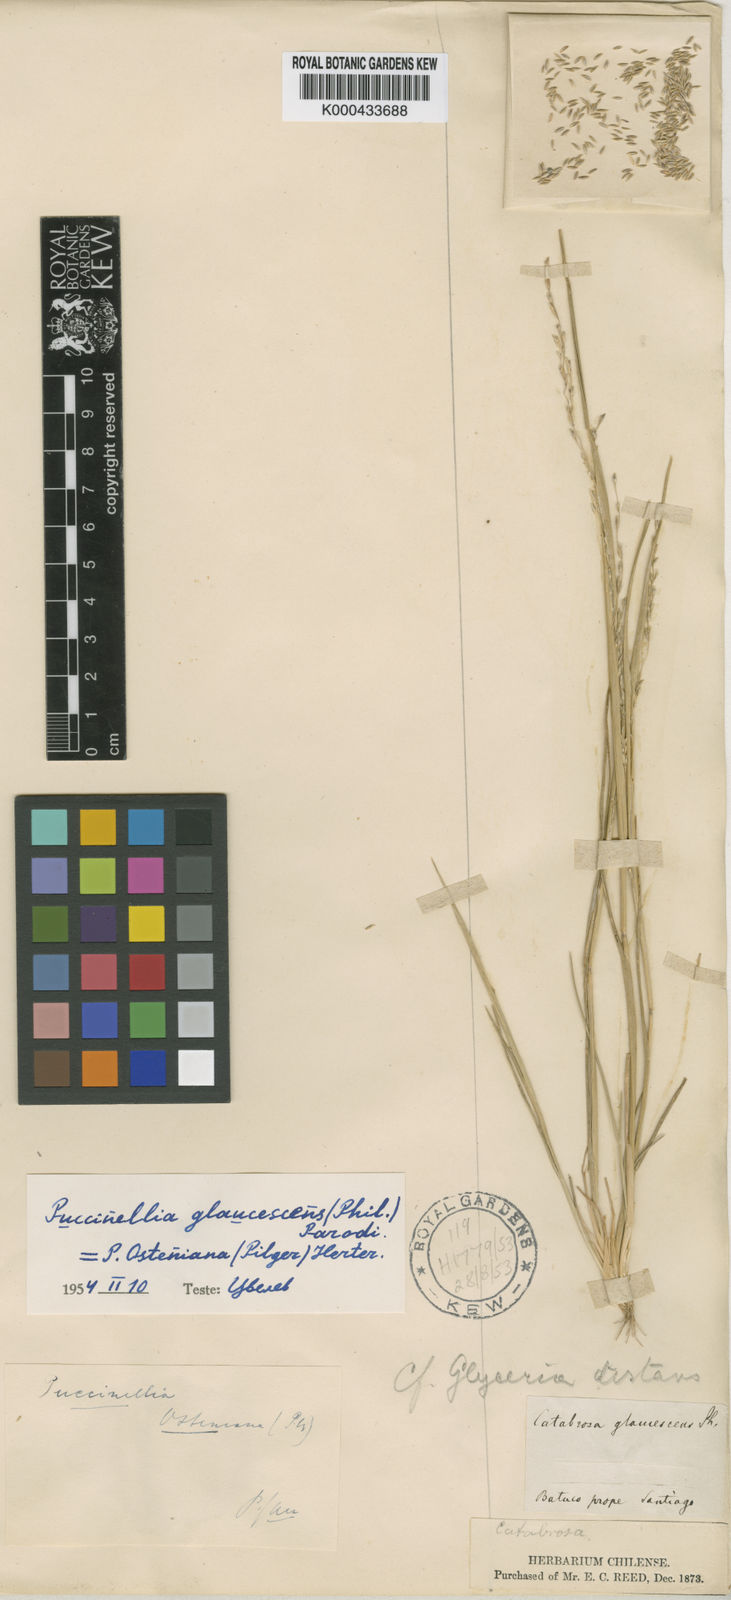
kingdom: Plantae
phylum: Tracheophyta
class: Liliopsida
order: Poales
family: Poaceae
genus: Puccinellia
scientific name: Puccinellia glaucescens
